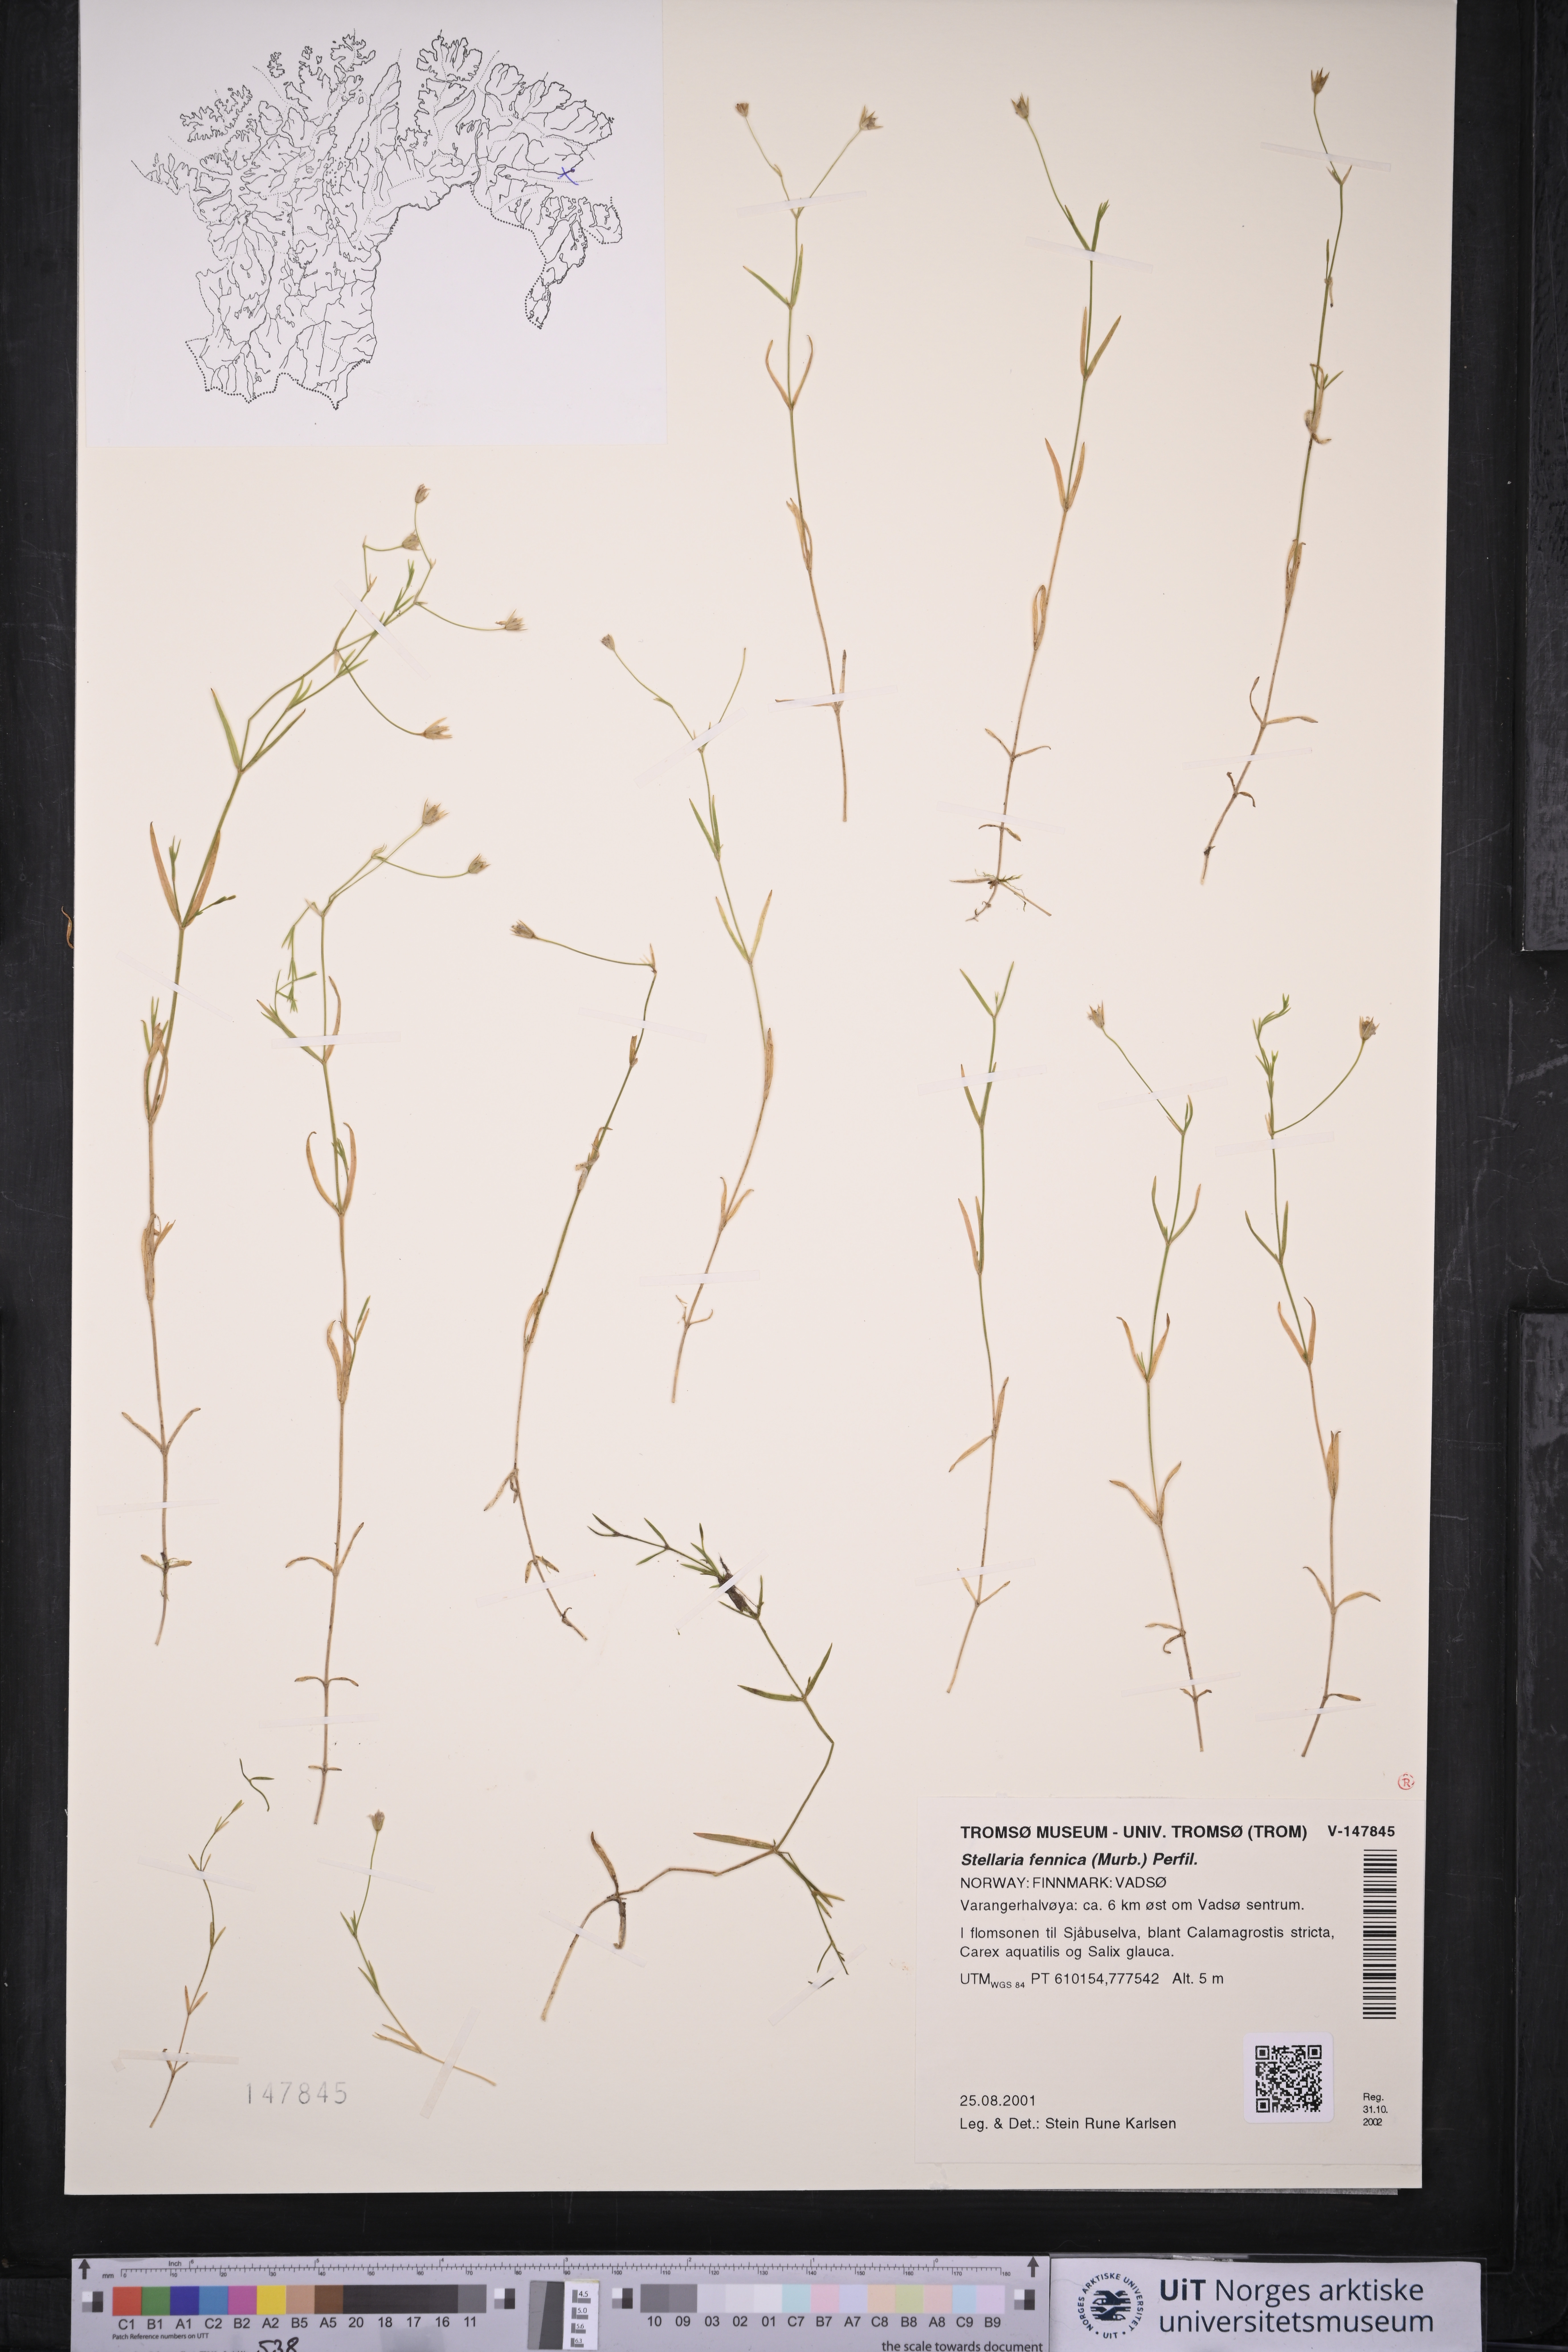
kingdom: Plantae
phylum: Tracheophyta
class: Magnoliopsida
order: Caryophyllales
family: Caryophyllaceae
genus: Stellaria
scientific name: Stellaria fennica
